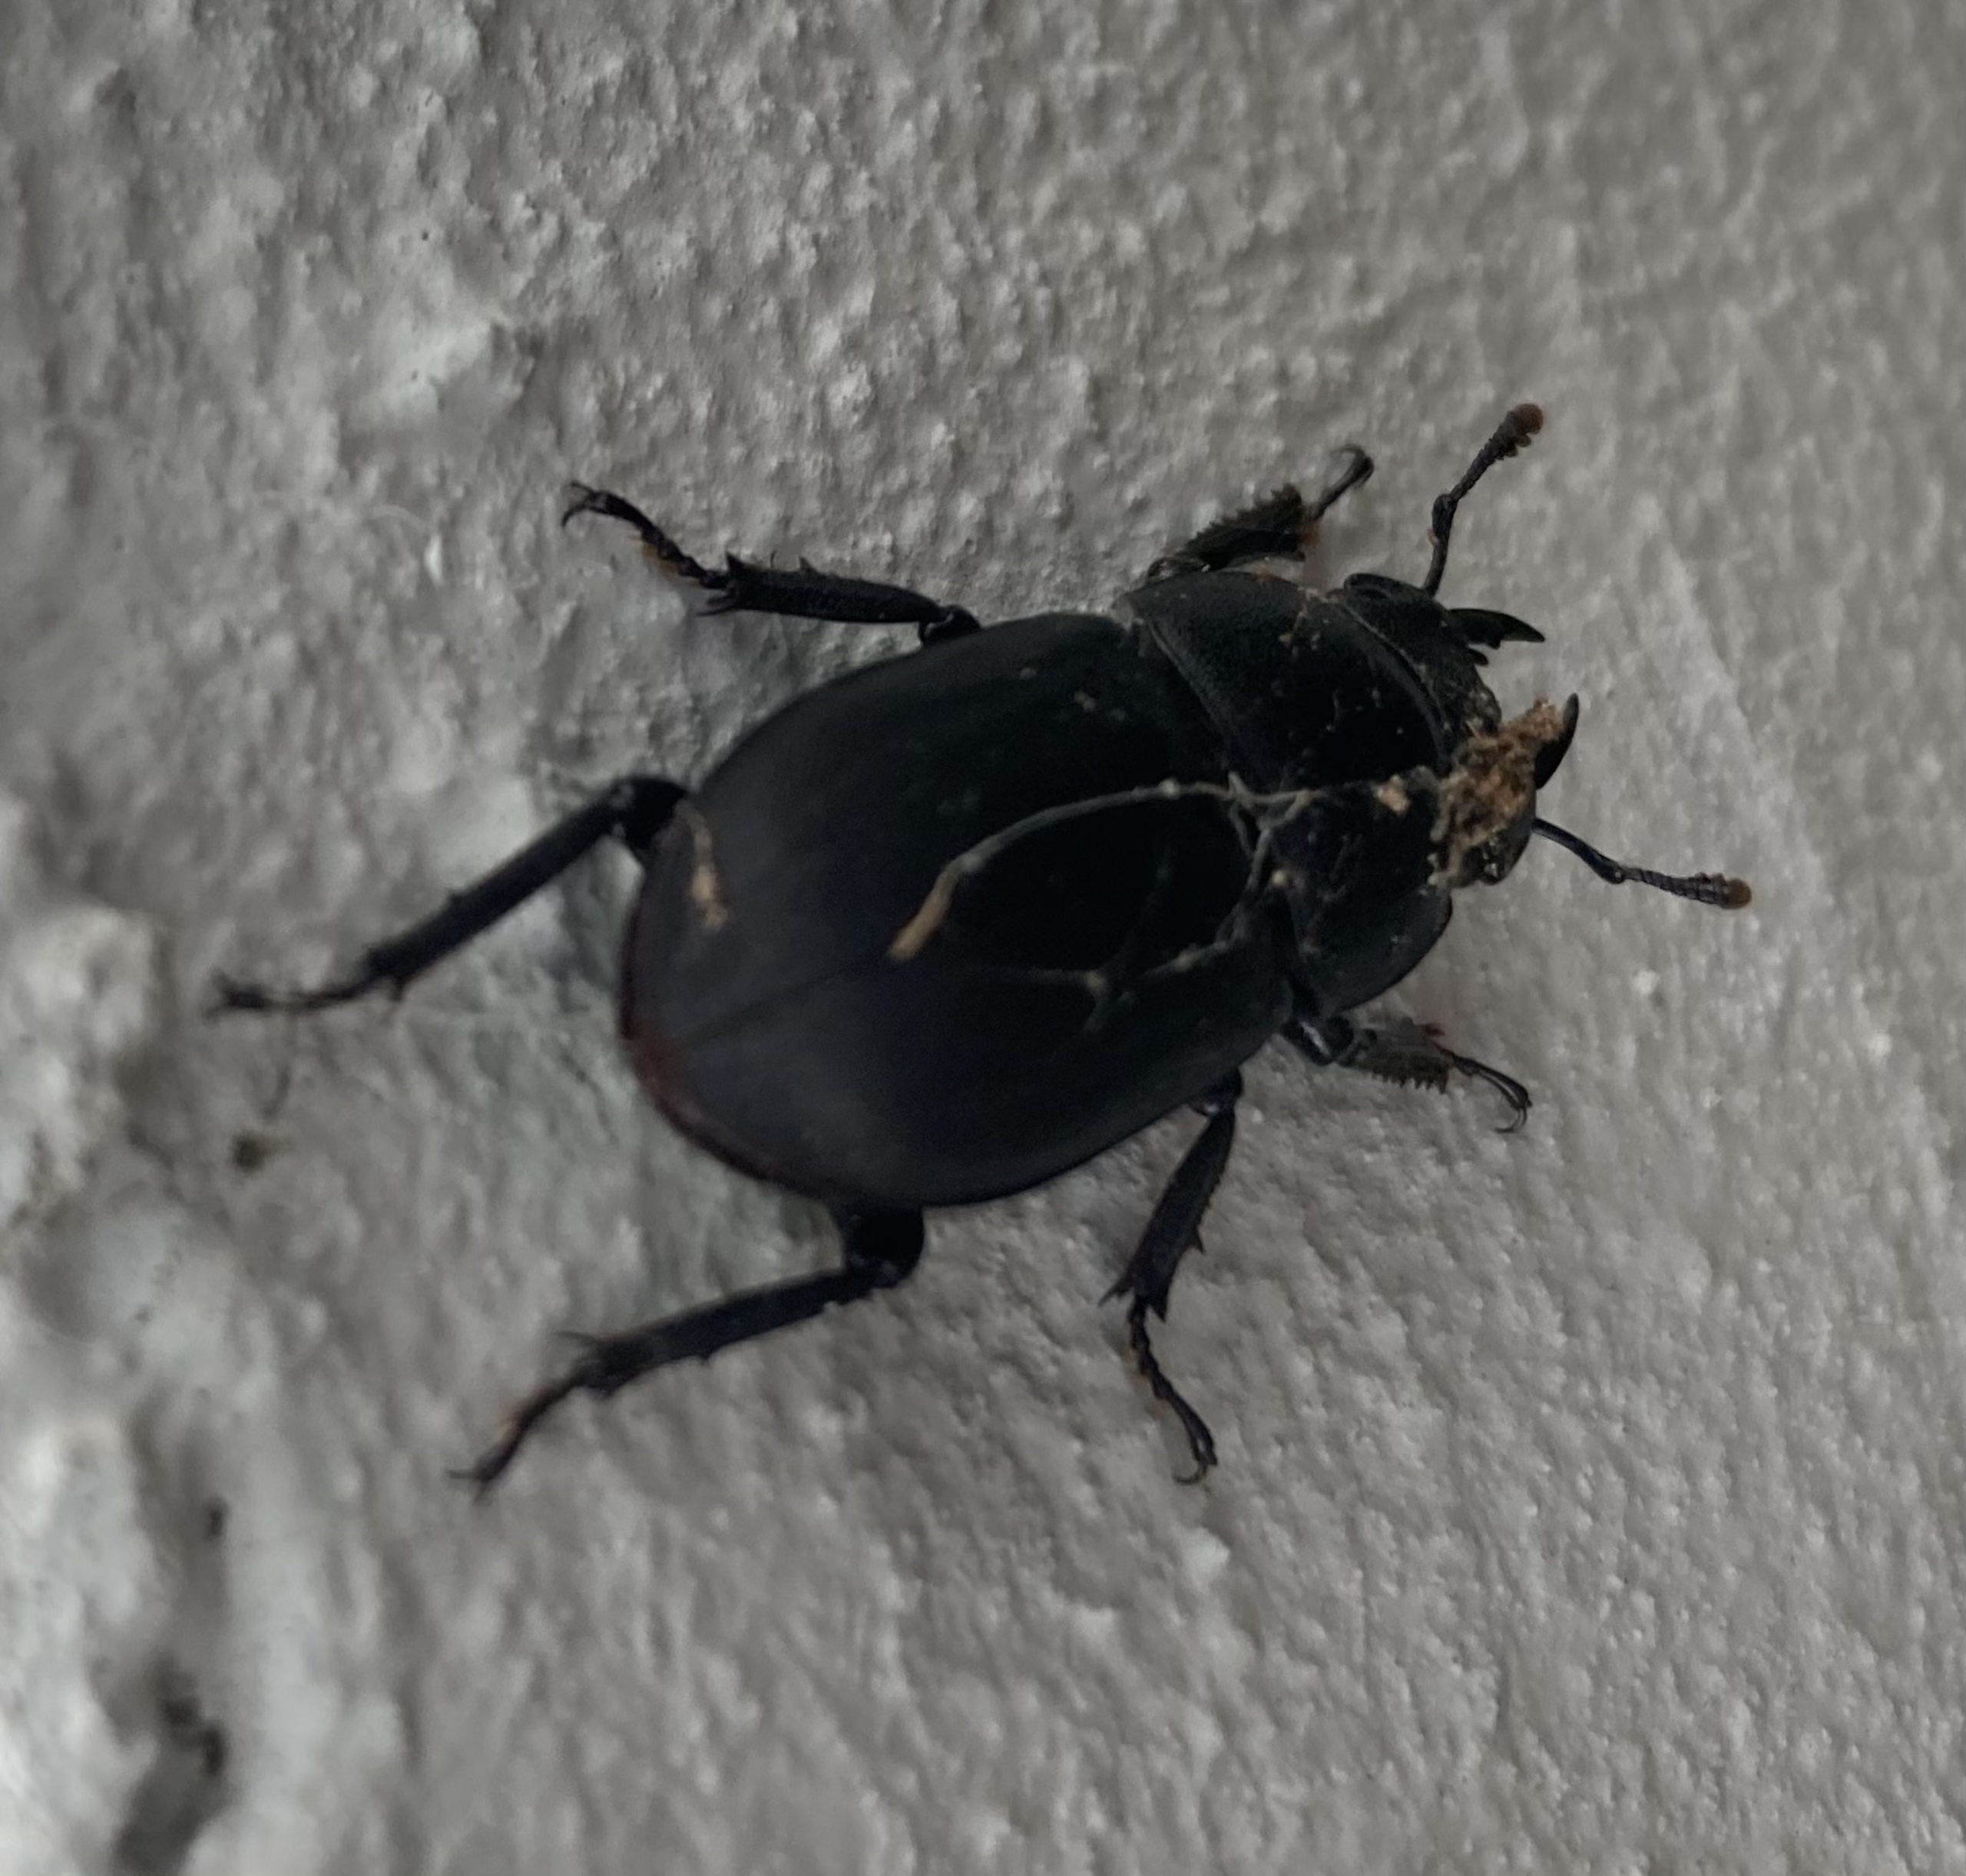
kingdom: Animalia
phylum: Arthropoda
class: Insecta
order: Coleoptera
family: Lucanidae
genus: Dorcus
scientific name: Dorcus parallelipipedus
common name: Bøghjort
